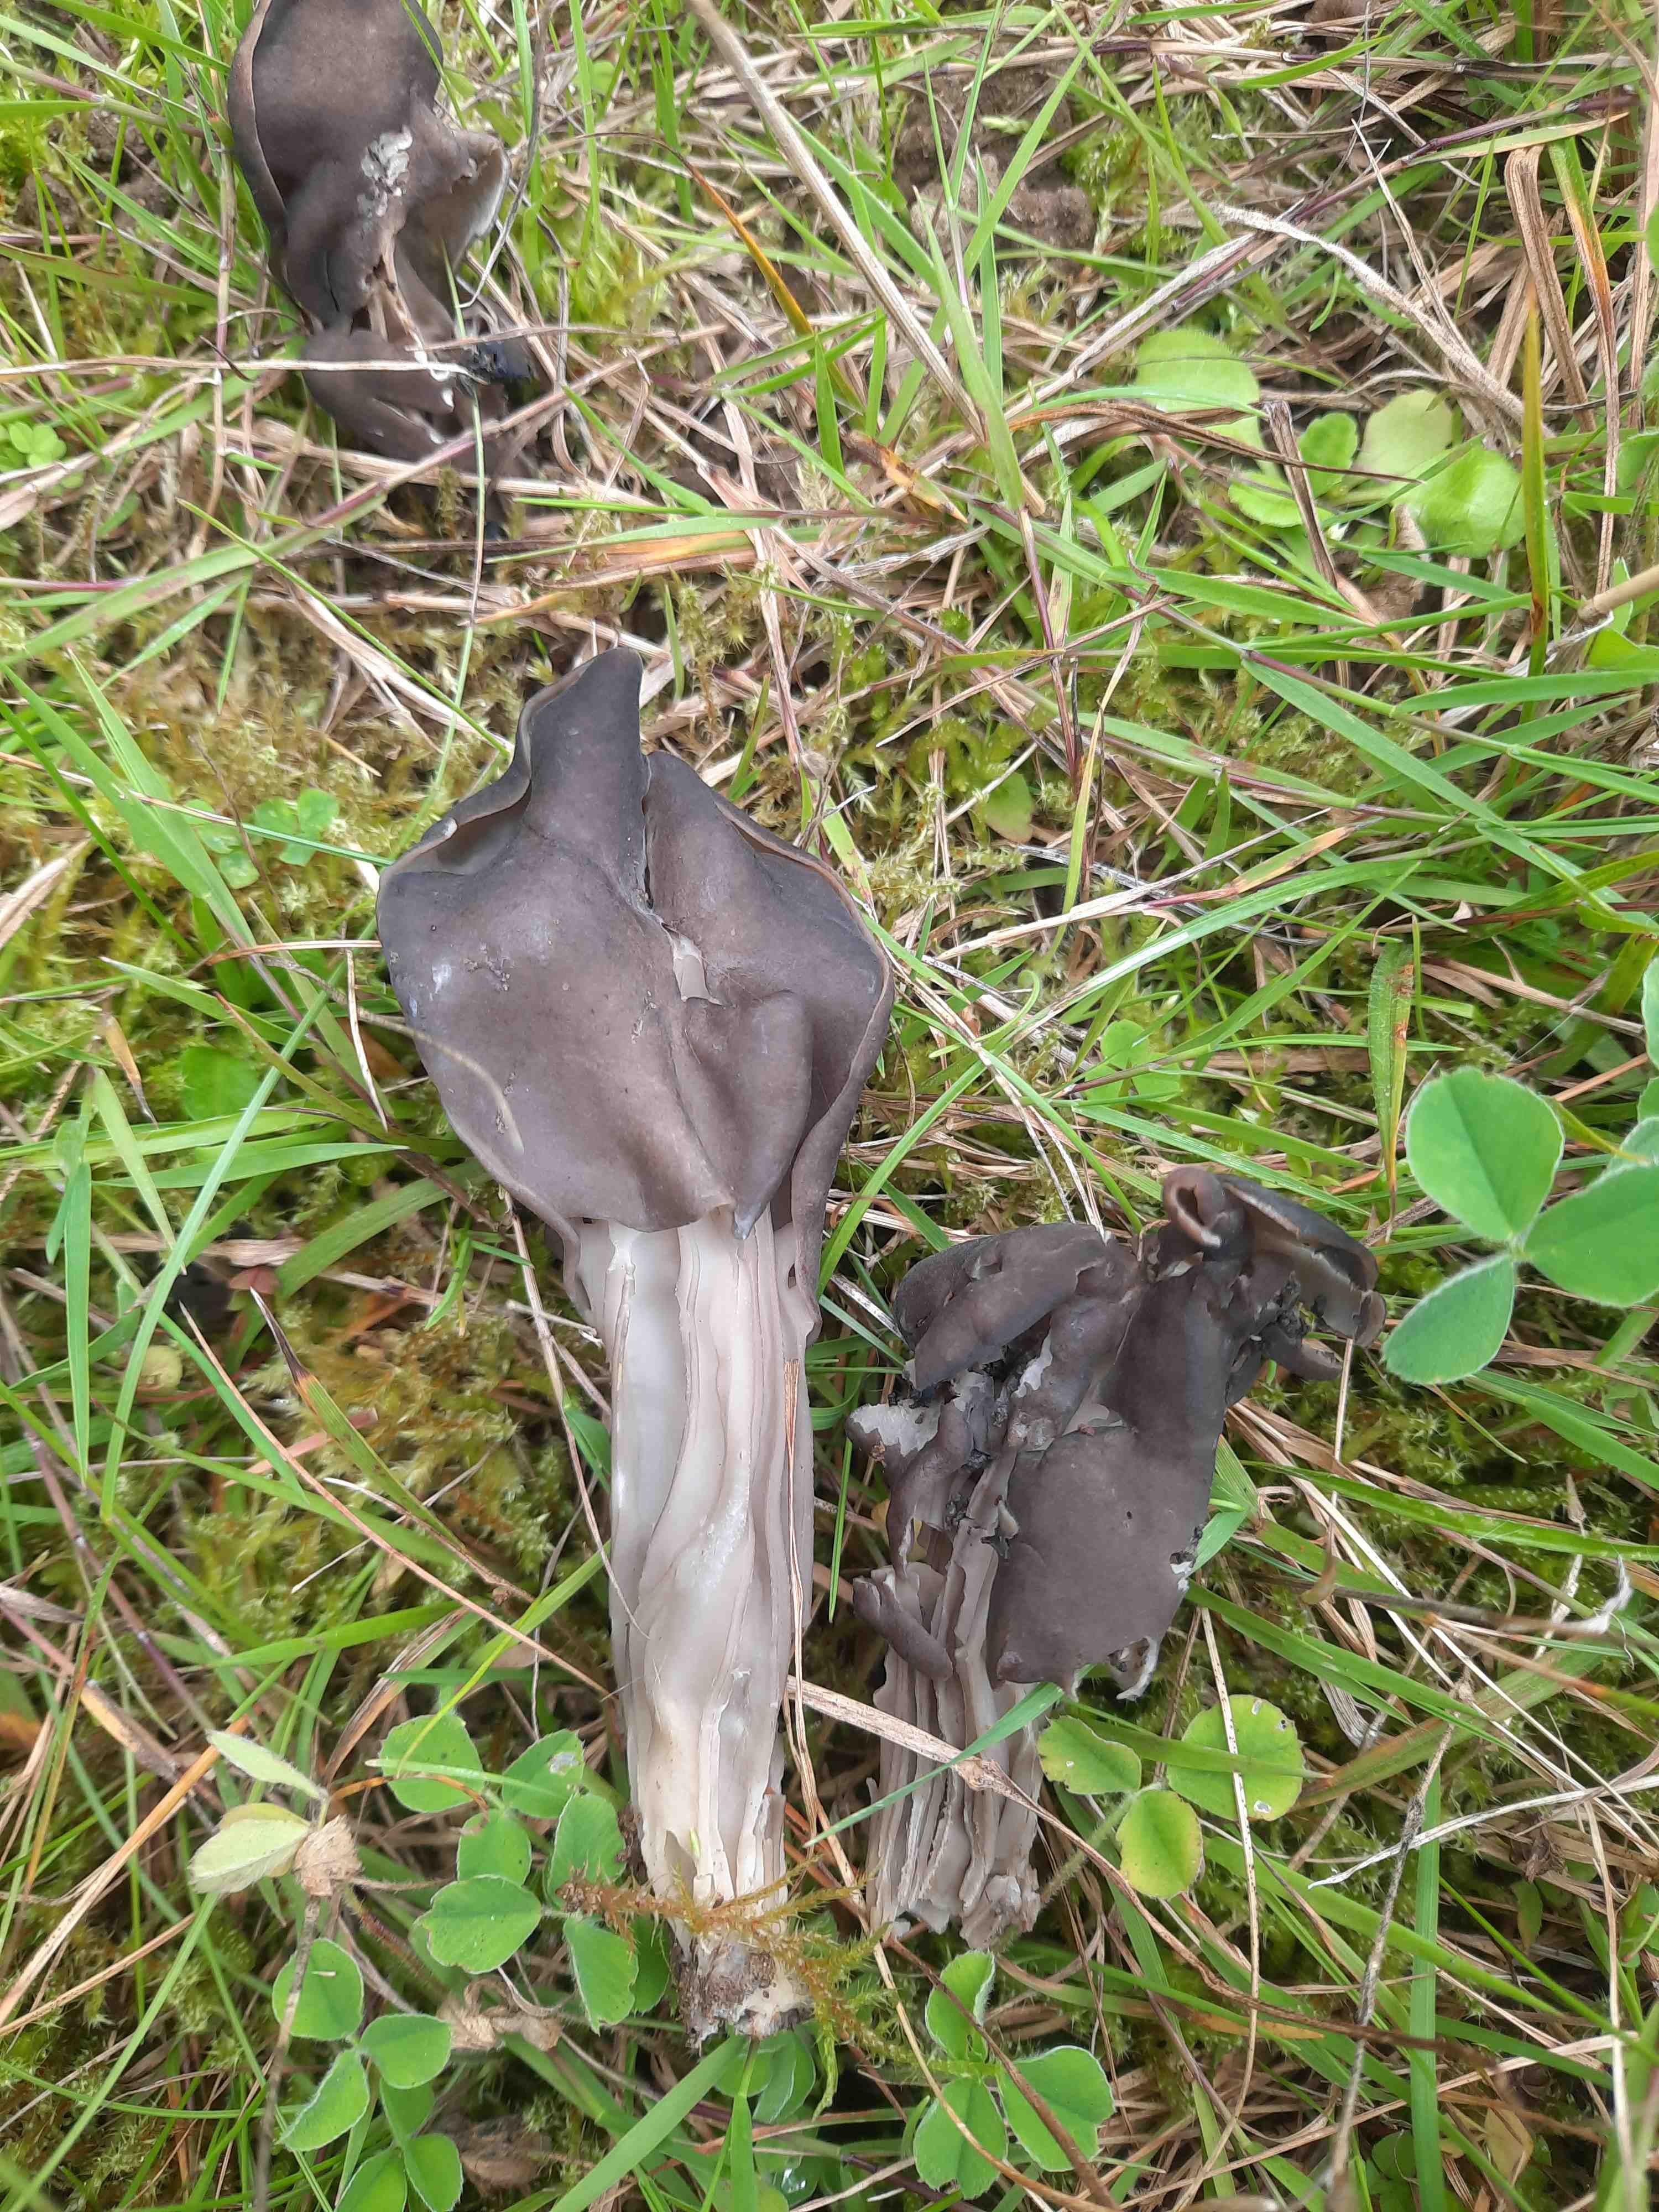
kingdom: Fungi
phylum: Ascomycota
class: Pezizomycetes
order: Pezizales
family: Helvellaceae
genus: Helvella
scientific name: Helvella lacunosa
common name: grubet foldhat
